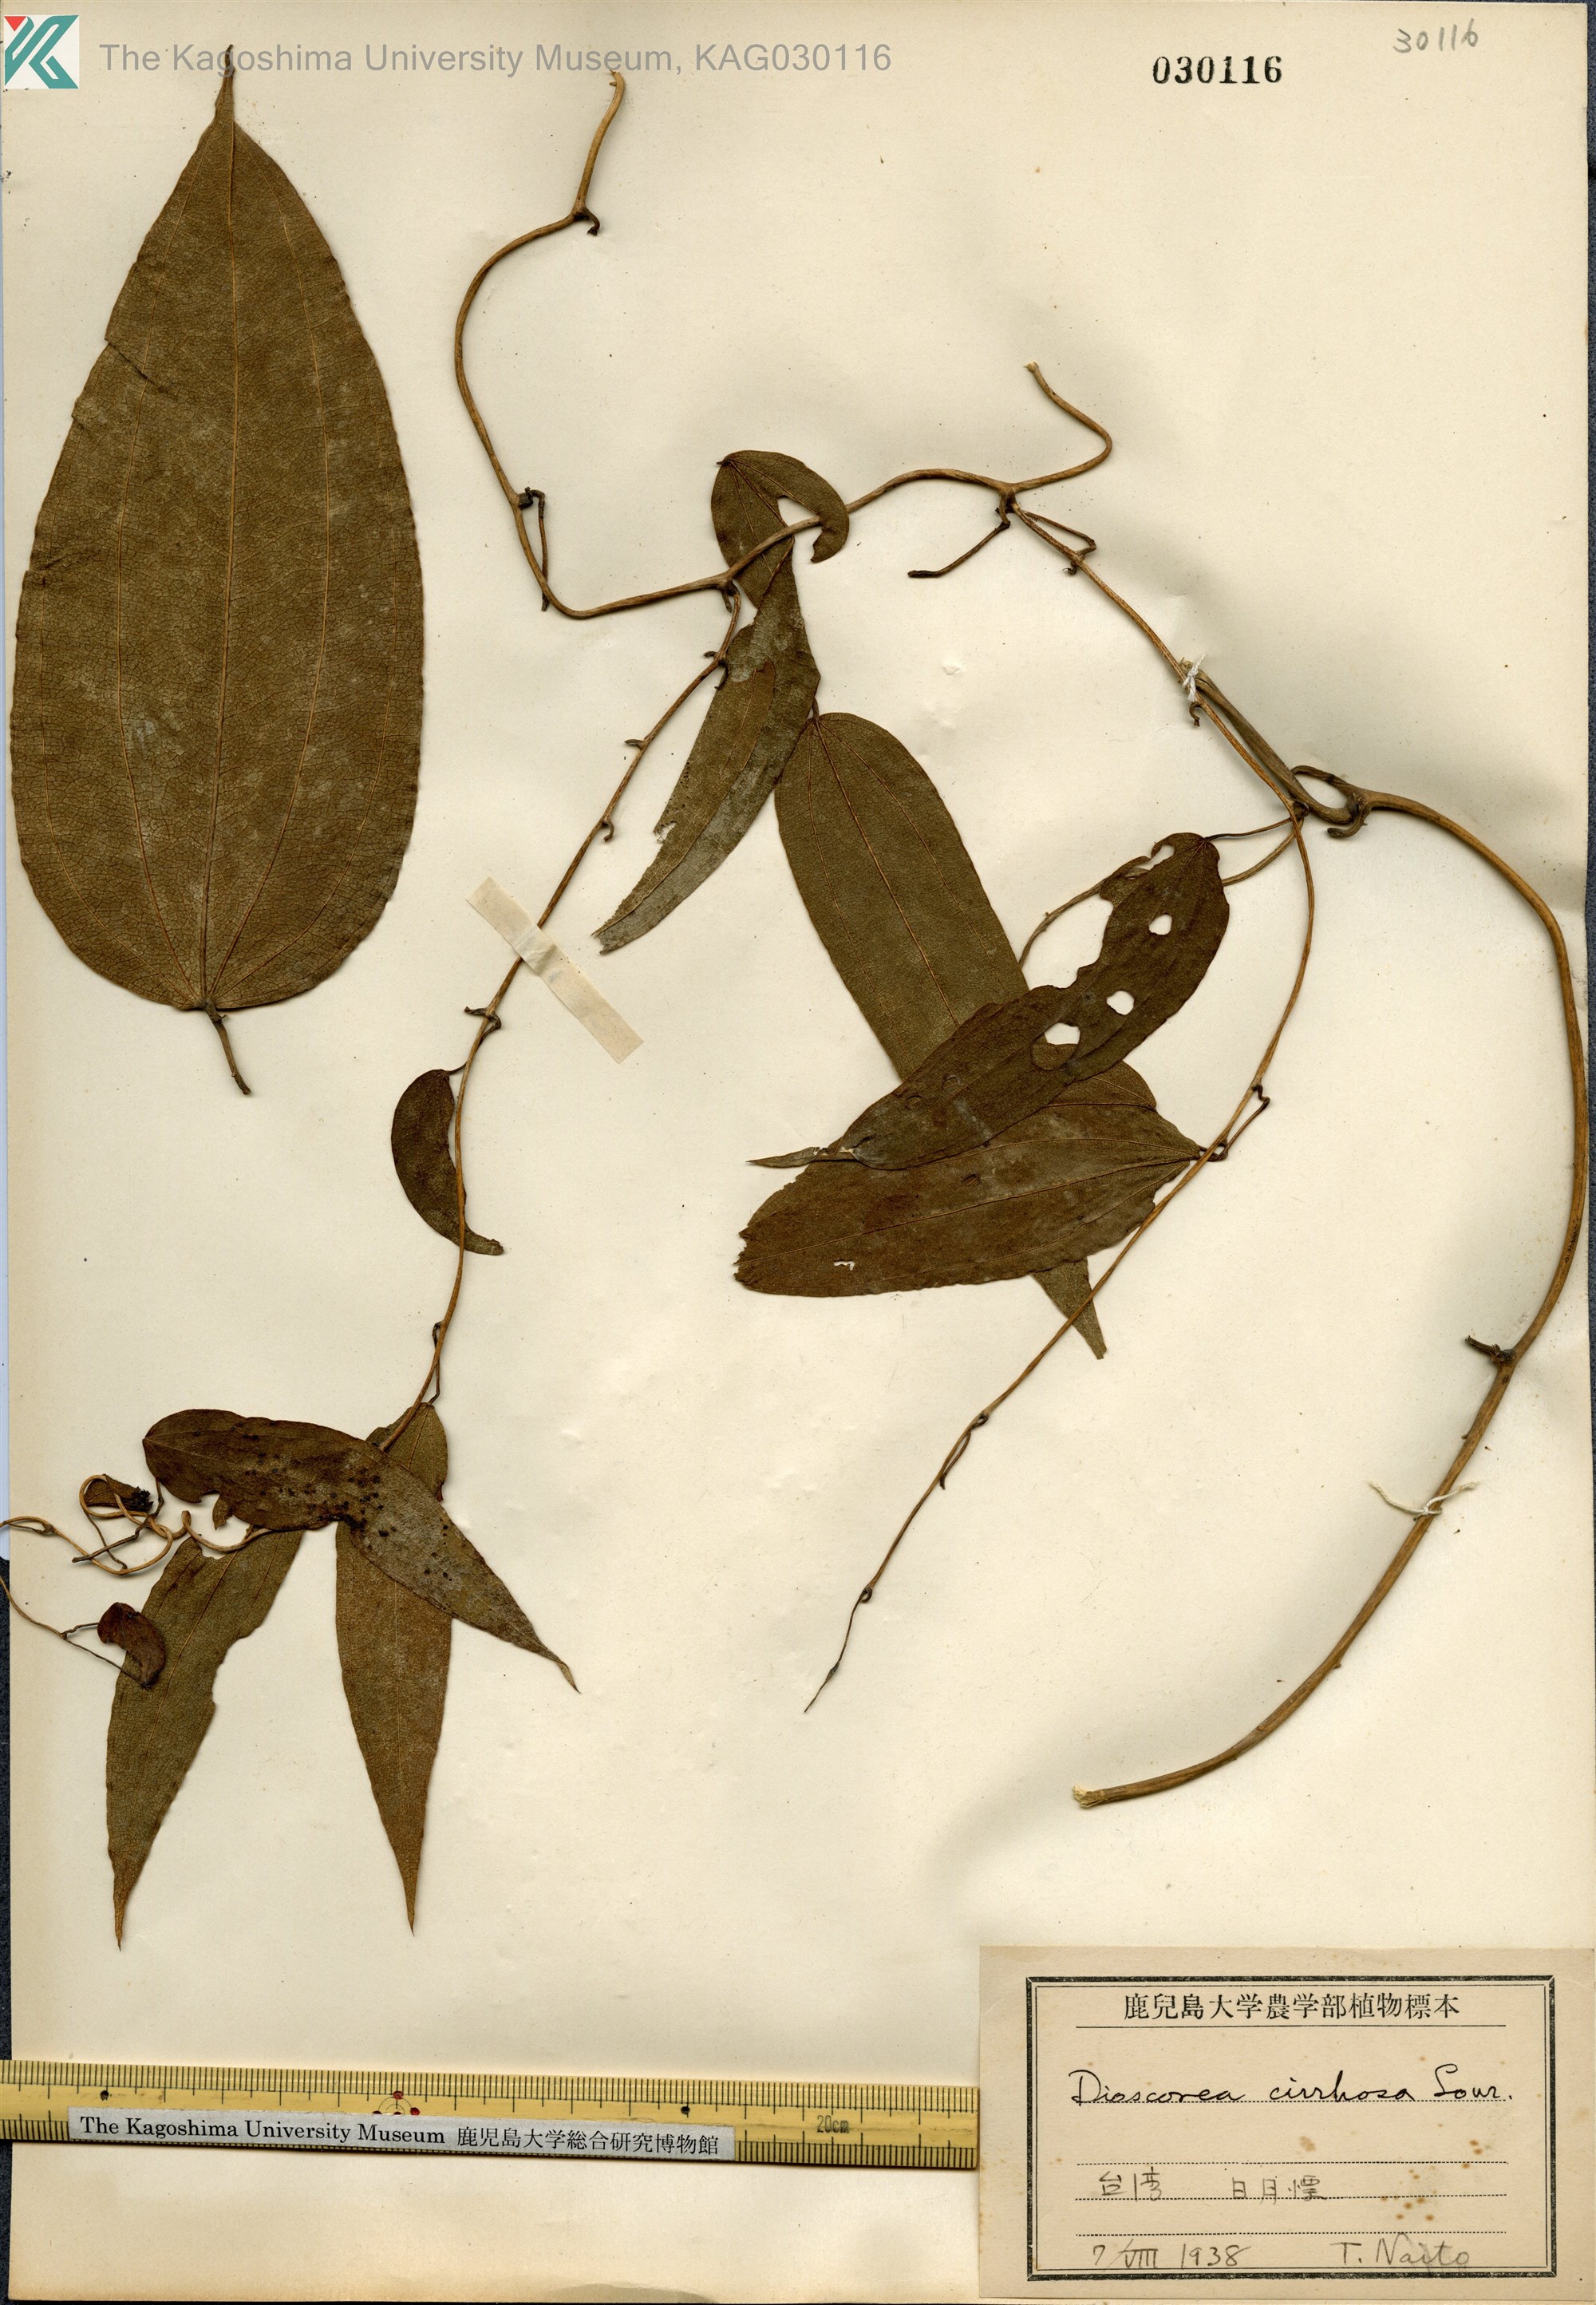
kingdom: Plantae
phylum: Tracheophyta
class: Liliopsida
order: Dioscoreales
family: Dioscoreaceae
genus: Dioscorea
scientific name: Dioscorea cirrhosa
